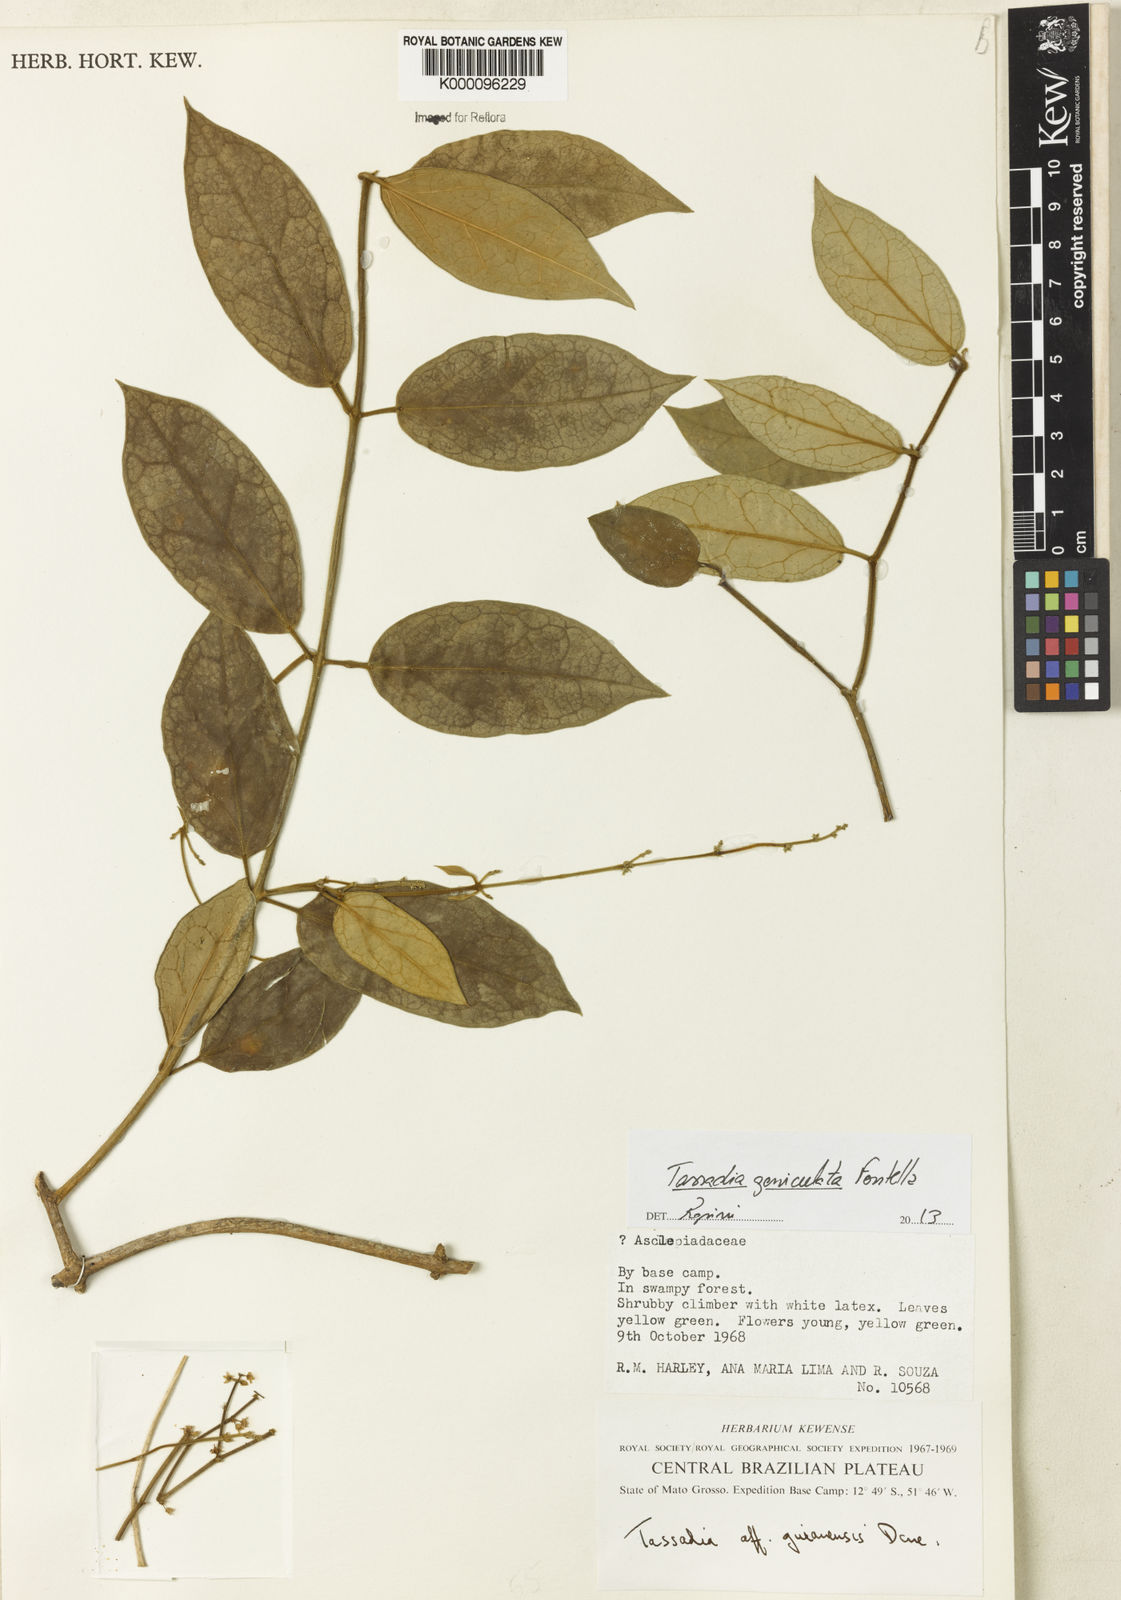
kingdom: Plantae
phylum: Tracheophyta
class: Magnoliopsida
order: Gentianales
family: Apocynaceae
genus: Tassadia
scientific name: Tassadia geniculata
